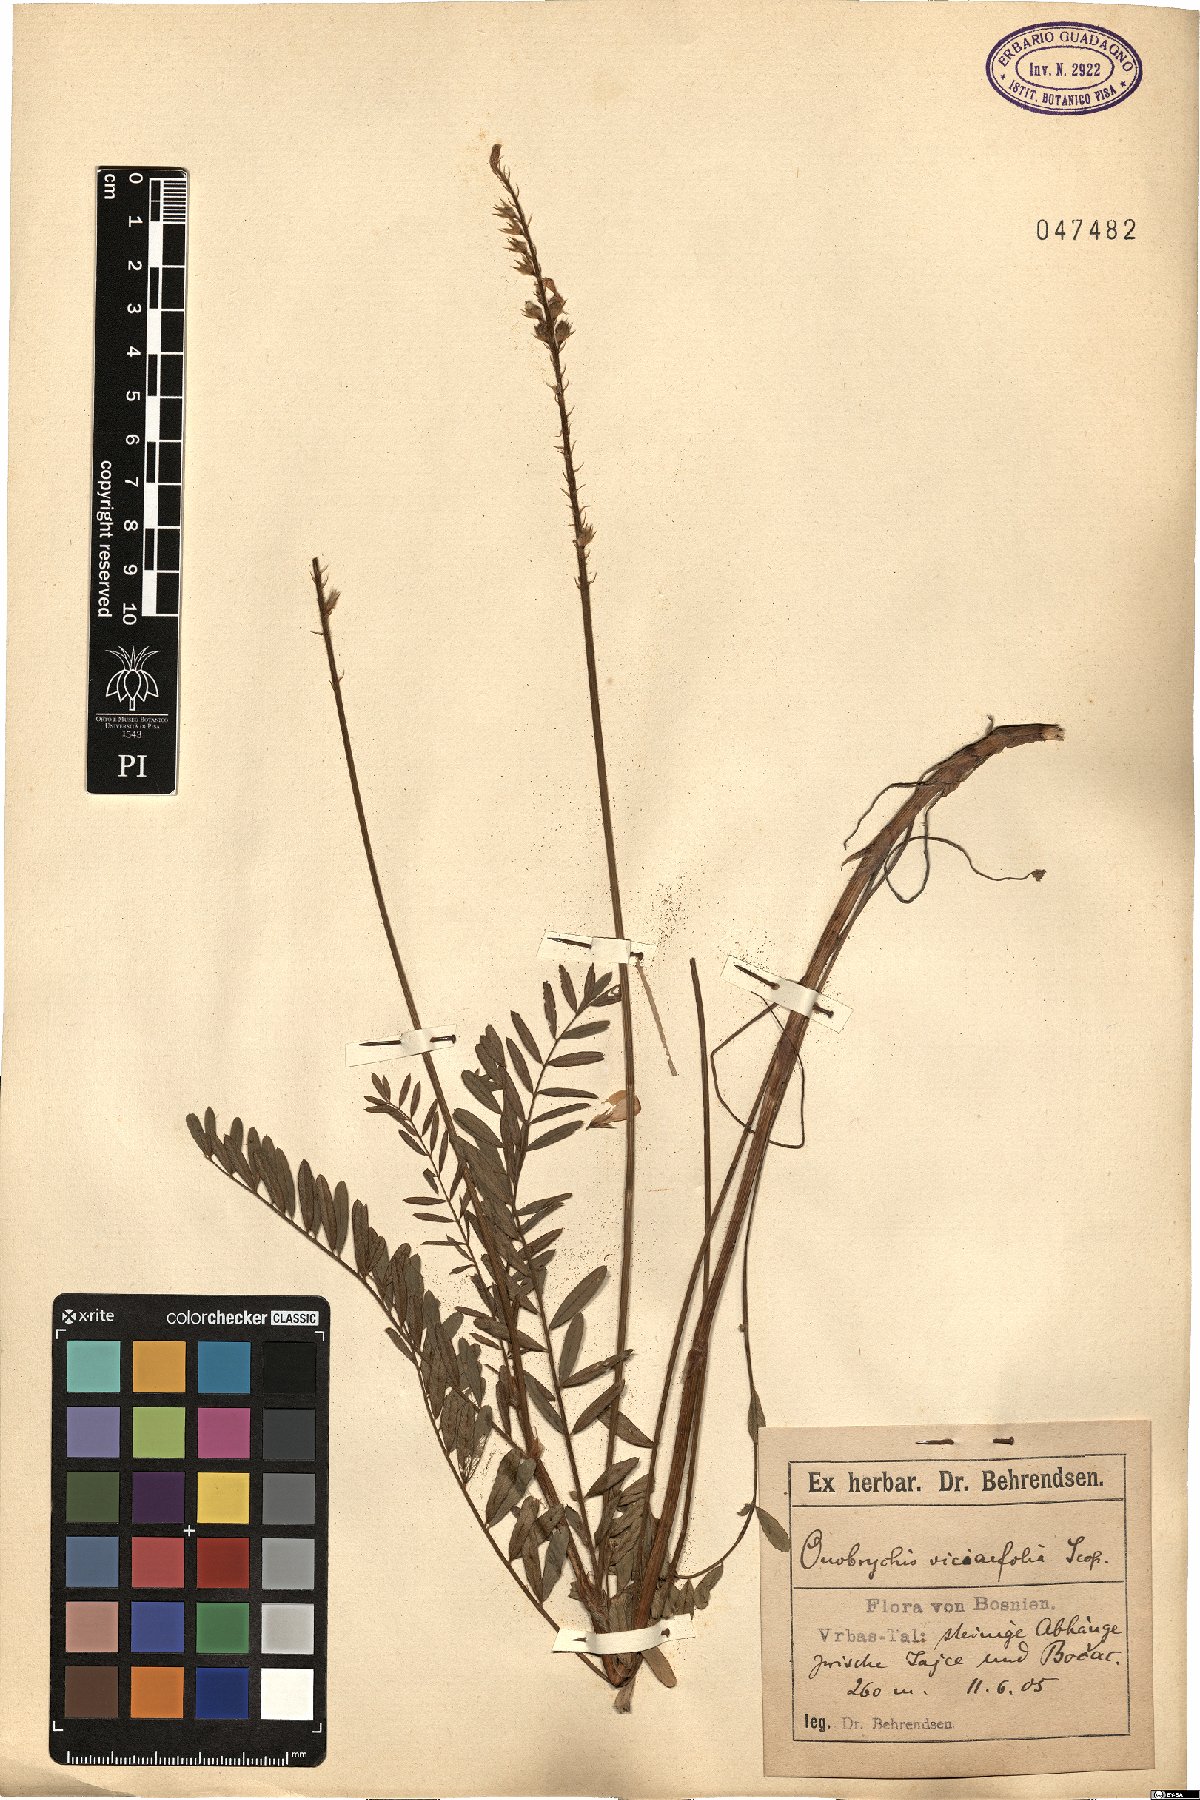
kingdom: Plantae
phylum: Tracheophyta
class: Magnoliopsida
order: Fabales
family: Fabaceae
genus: Onobrychis
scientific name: Onobrychis viciifolia
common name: Sainfoin
